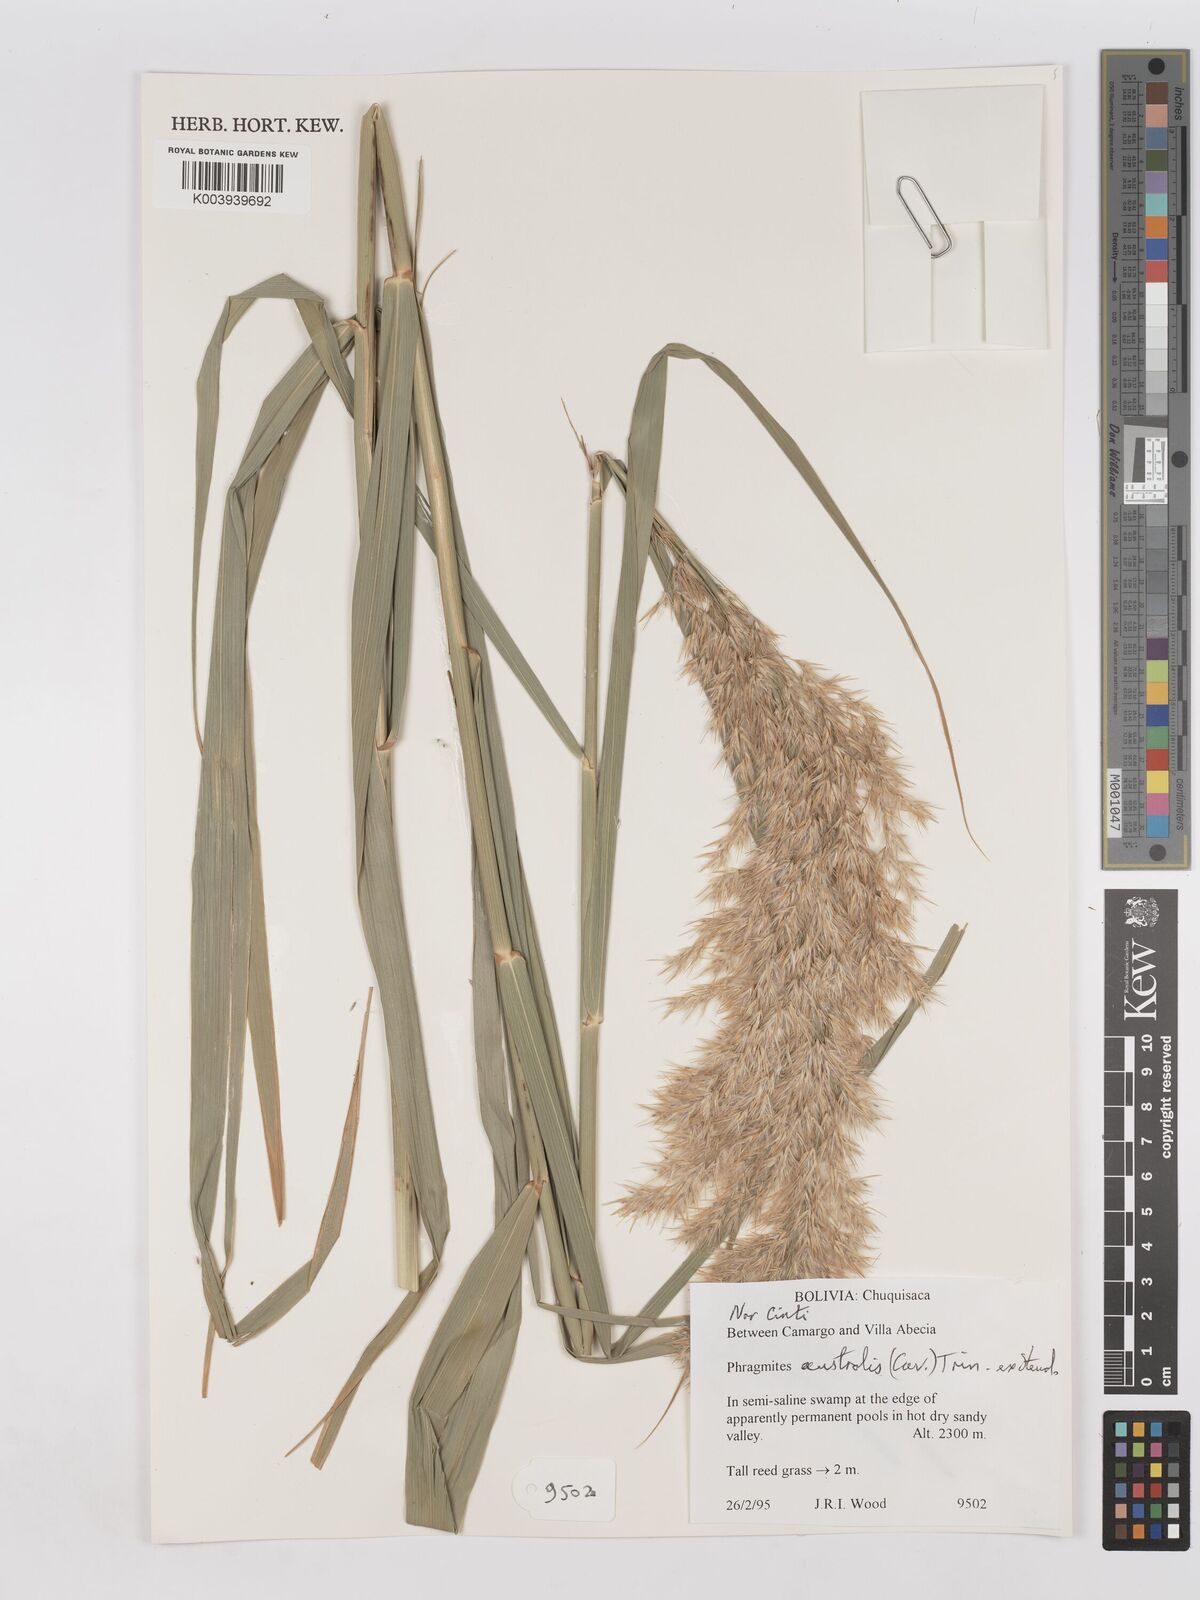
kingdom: Plantae
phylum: Tracheophyta
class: Liliopsida
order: Poales
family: Poaceae
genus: Phragmites
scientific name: Phragmites australis
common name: Common reed
